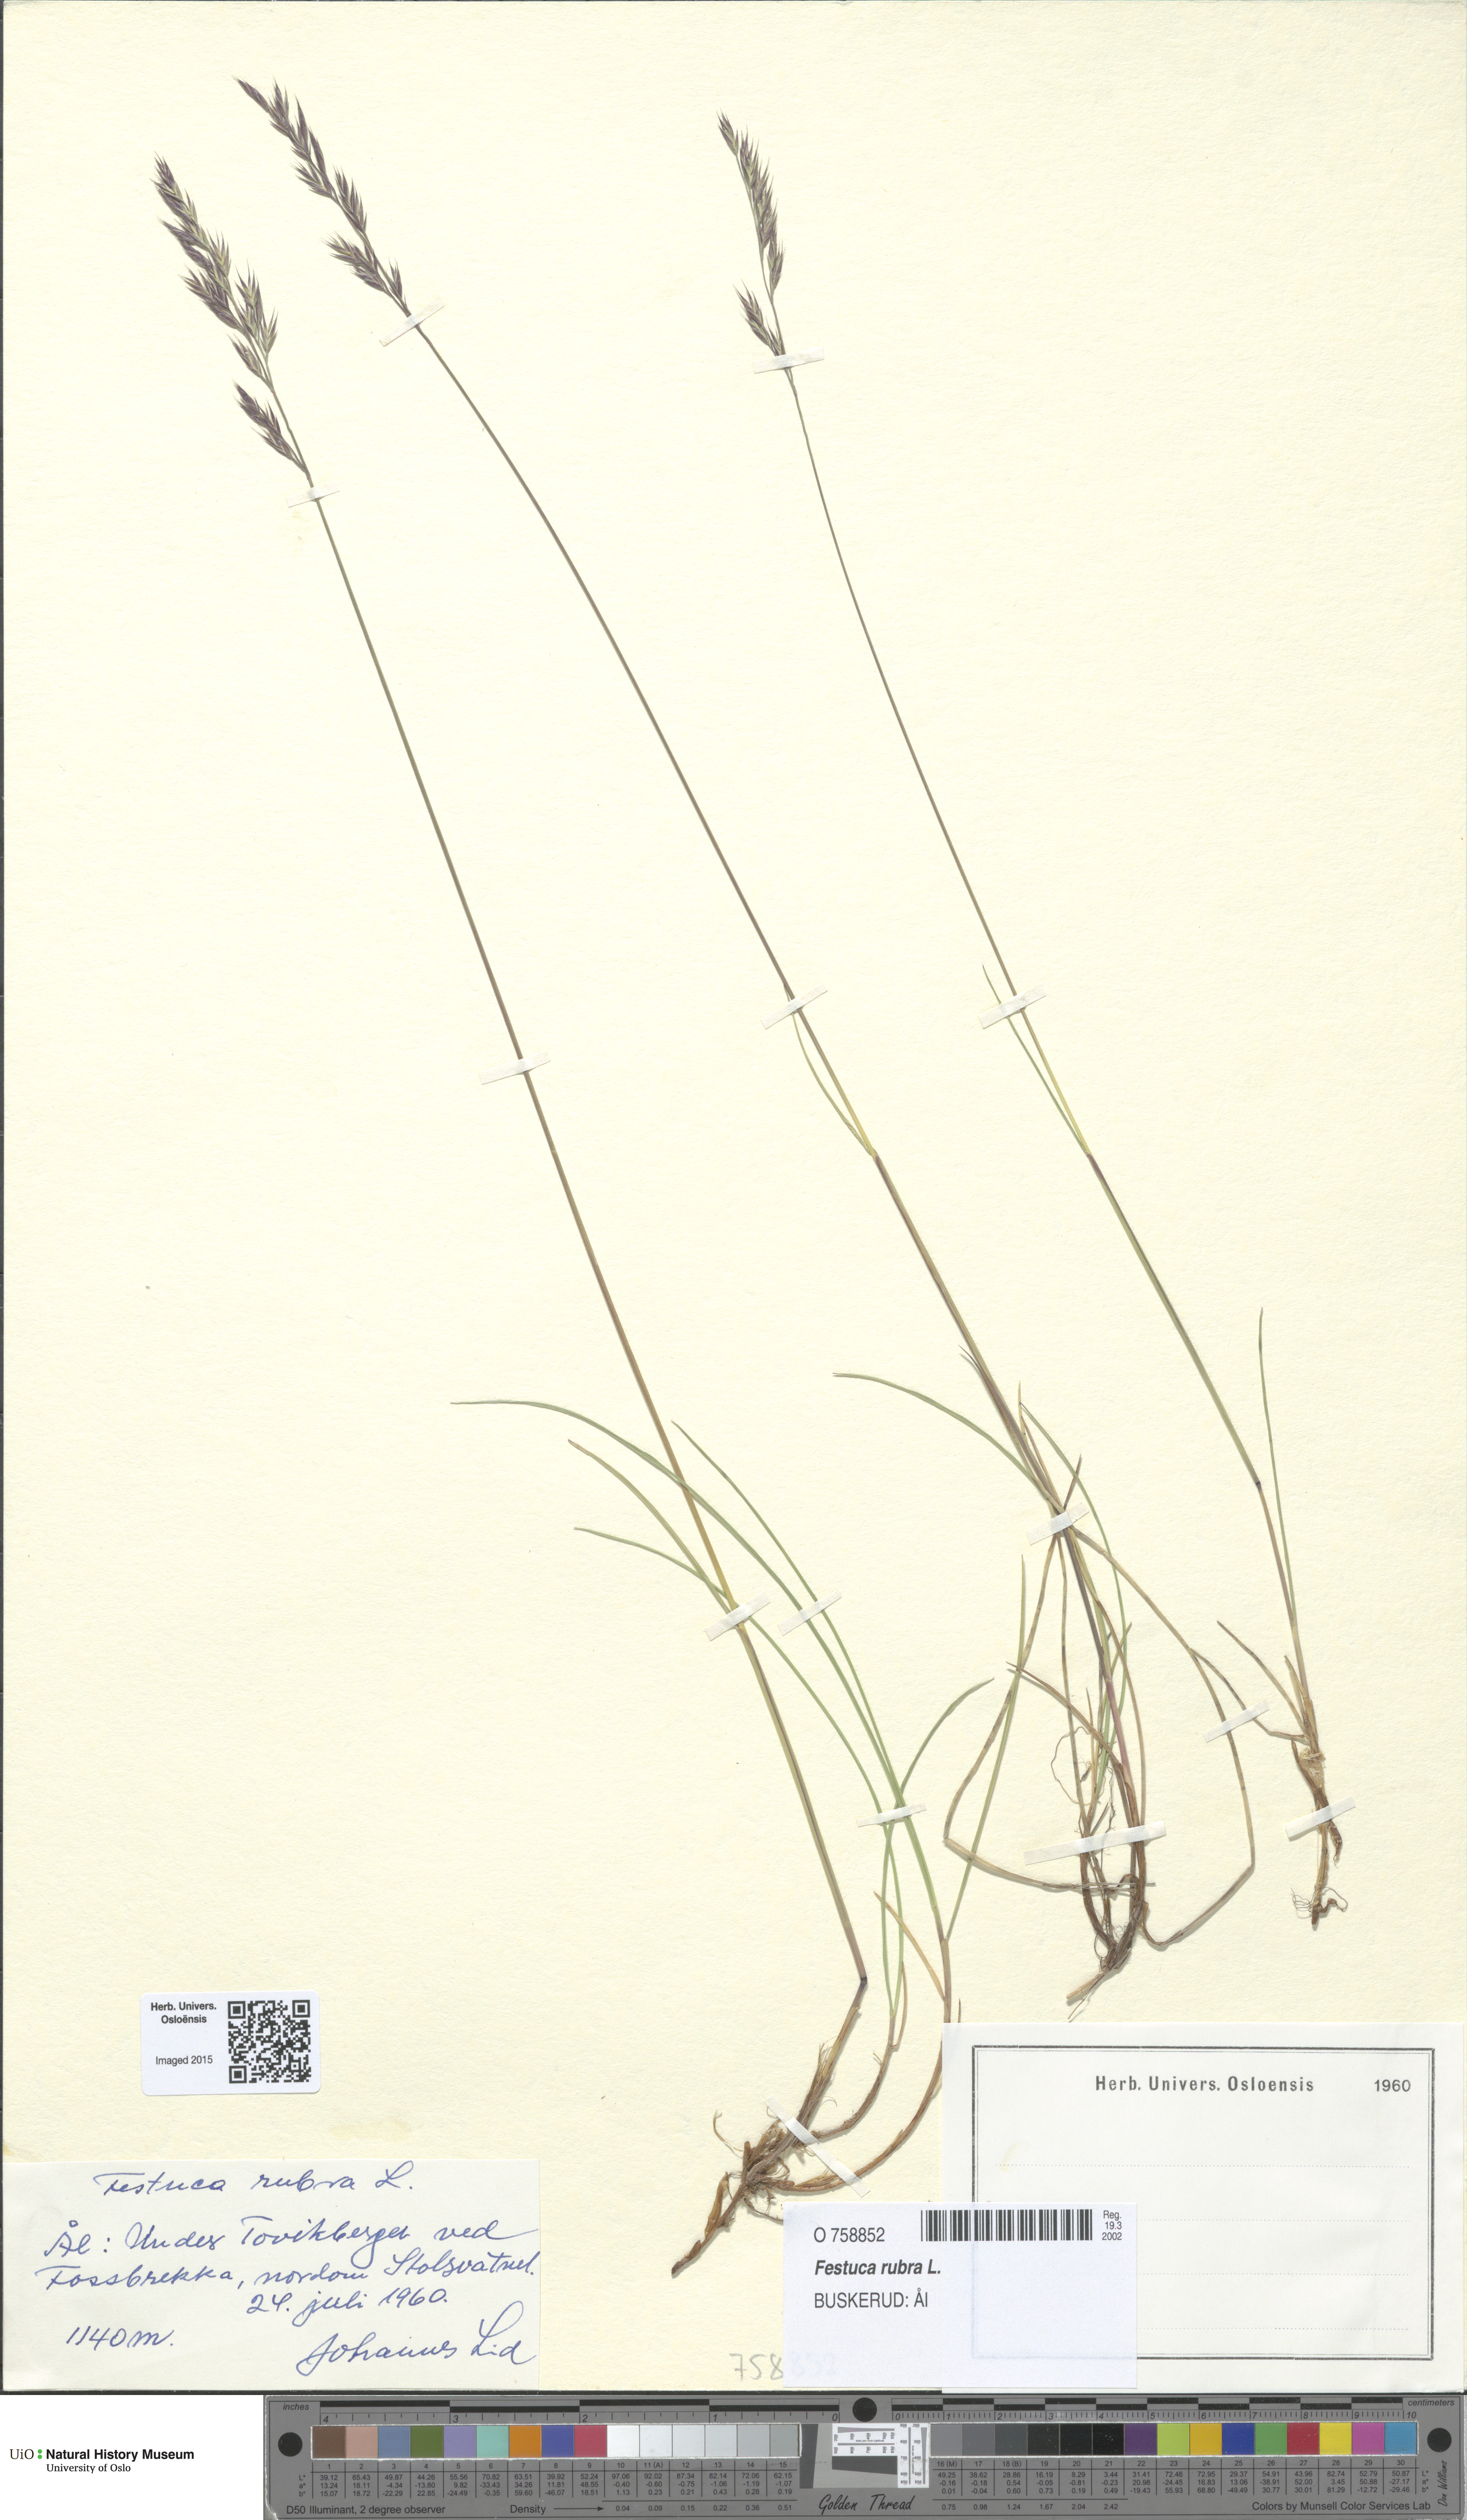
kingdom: Plantae
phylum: Tracheophyta
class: Liliopsida
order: Poales
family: Poaceae
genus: Festuca
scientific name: Festuca rubra
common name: Red fescue
